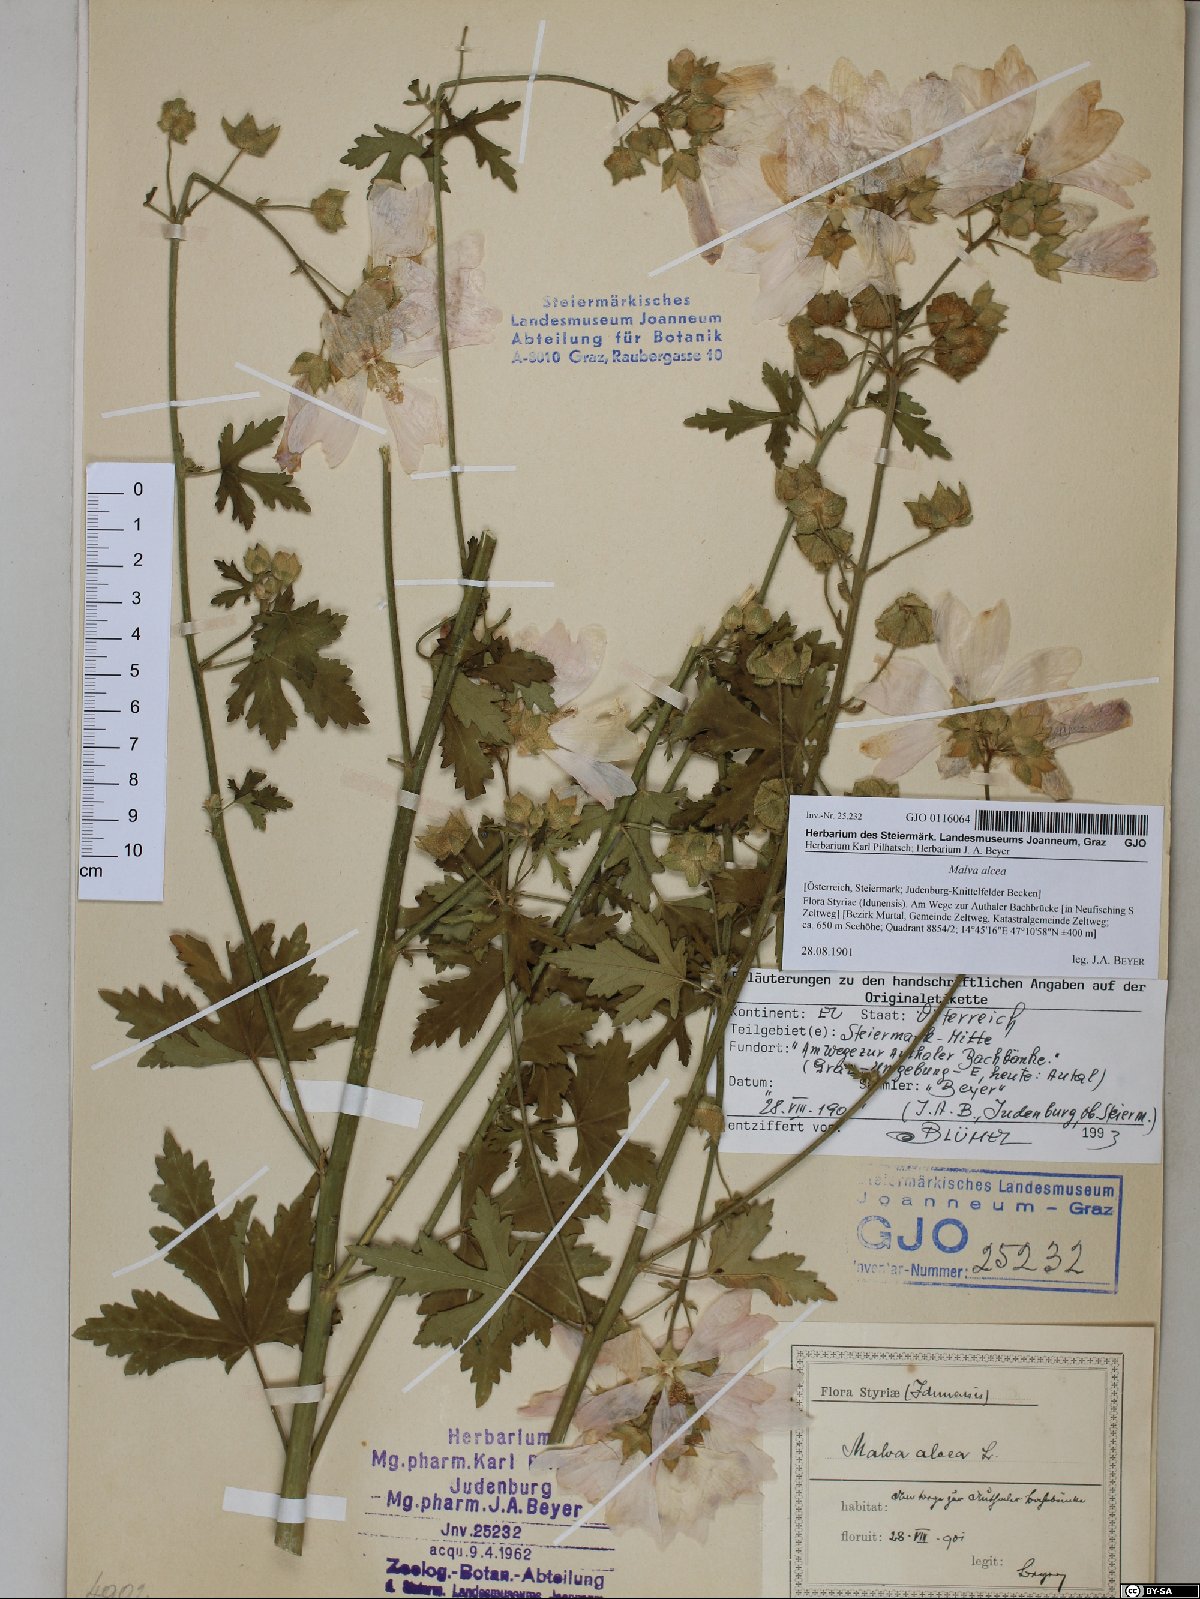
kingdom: Plantae
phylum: Tracheophyta
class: Magnoliopsida
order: Malvales
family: Malvaceae
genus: Malva
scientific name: Malva alcea
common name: Greater musk-mallow
